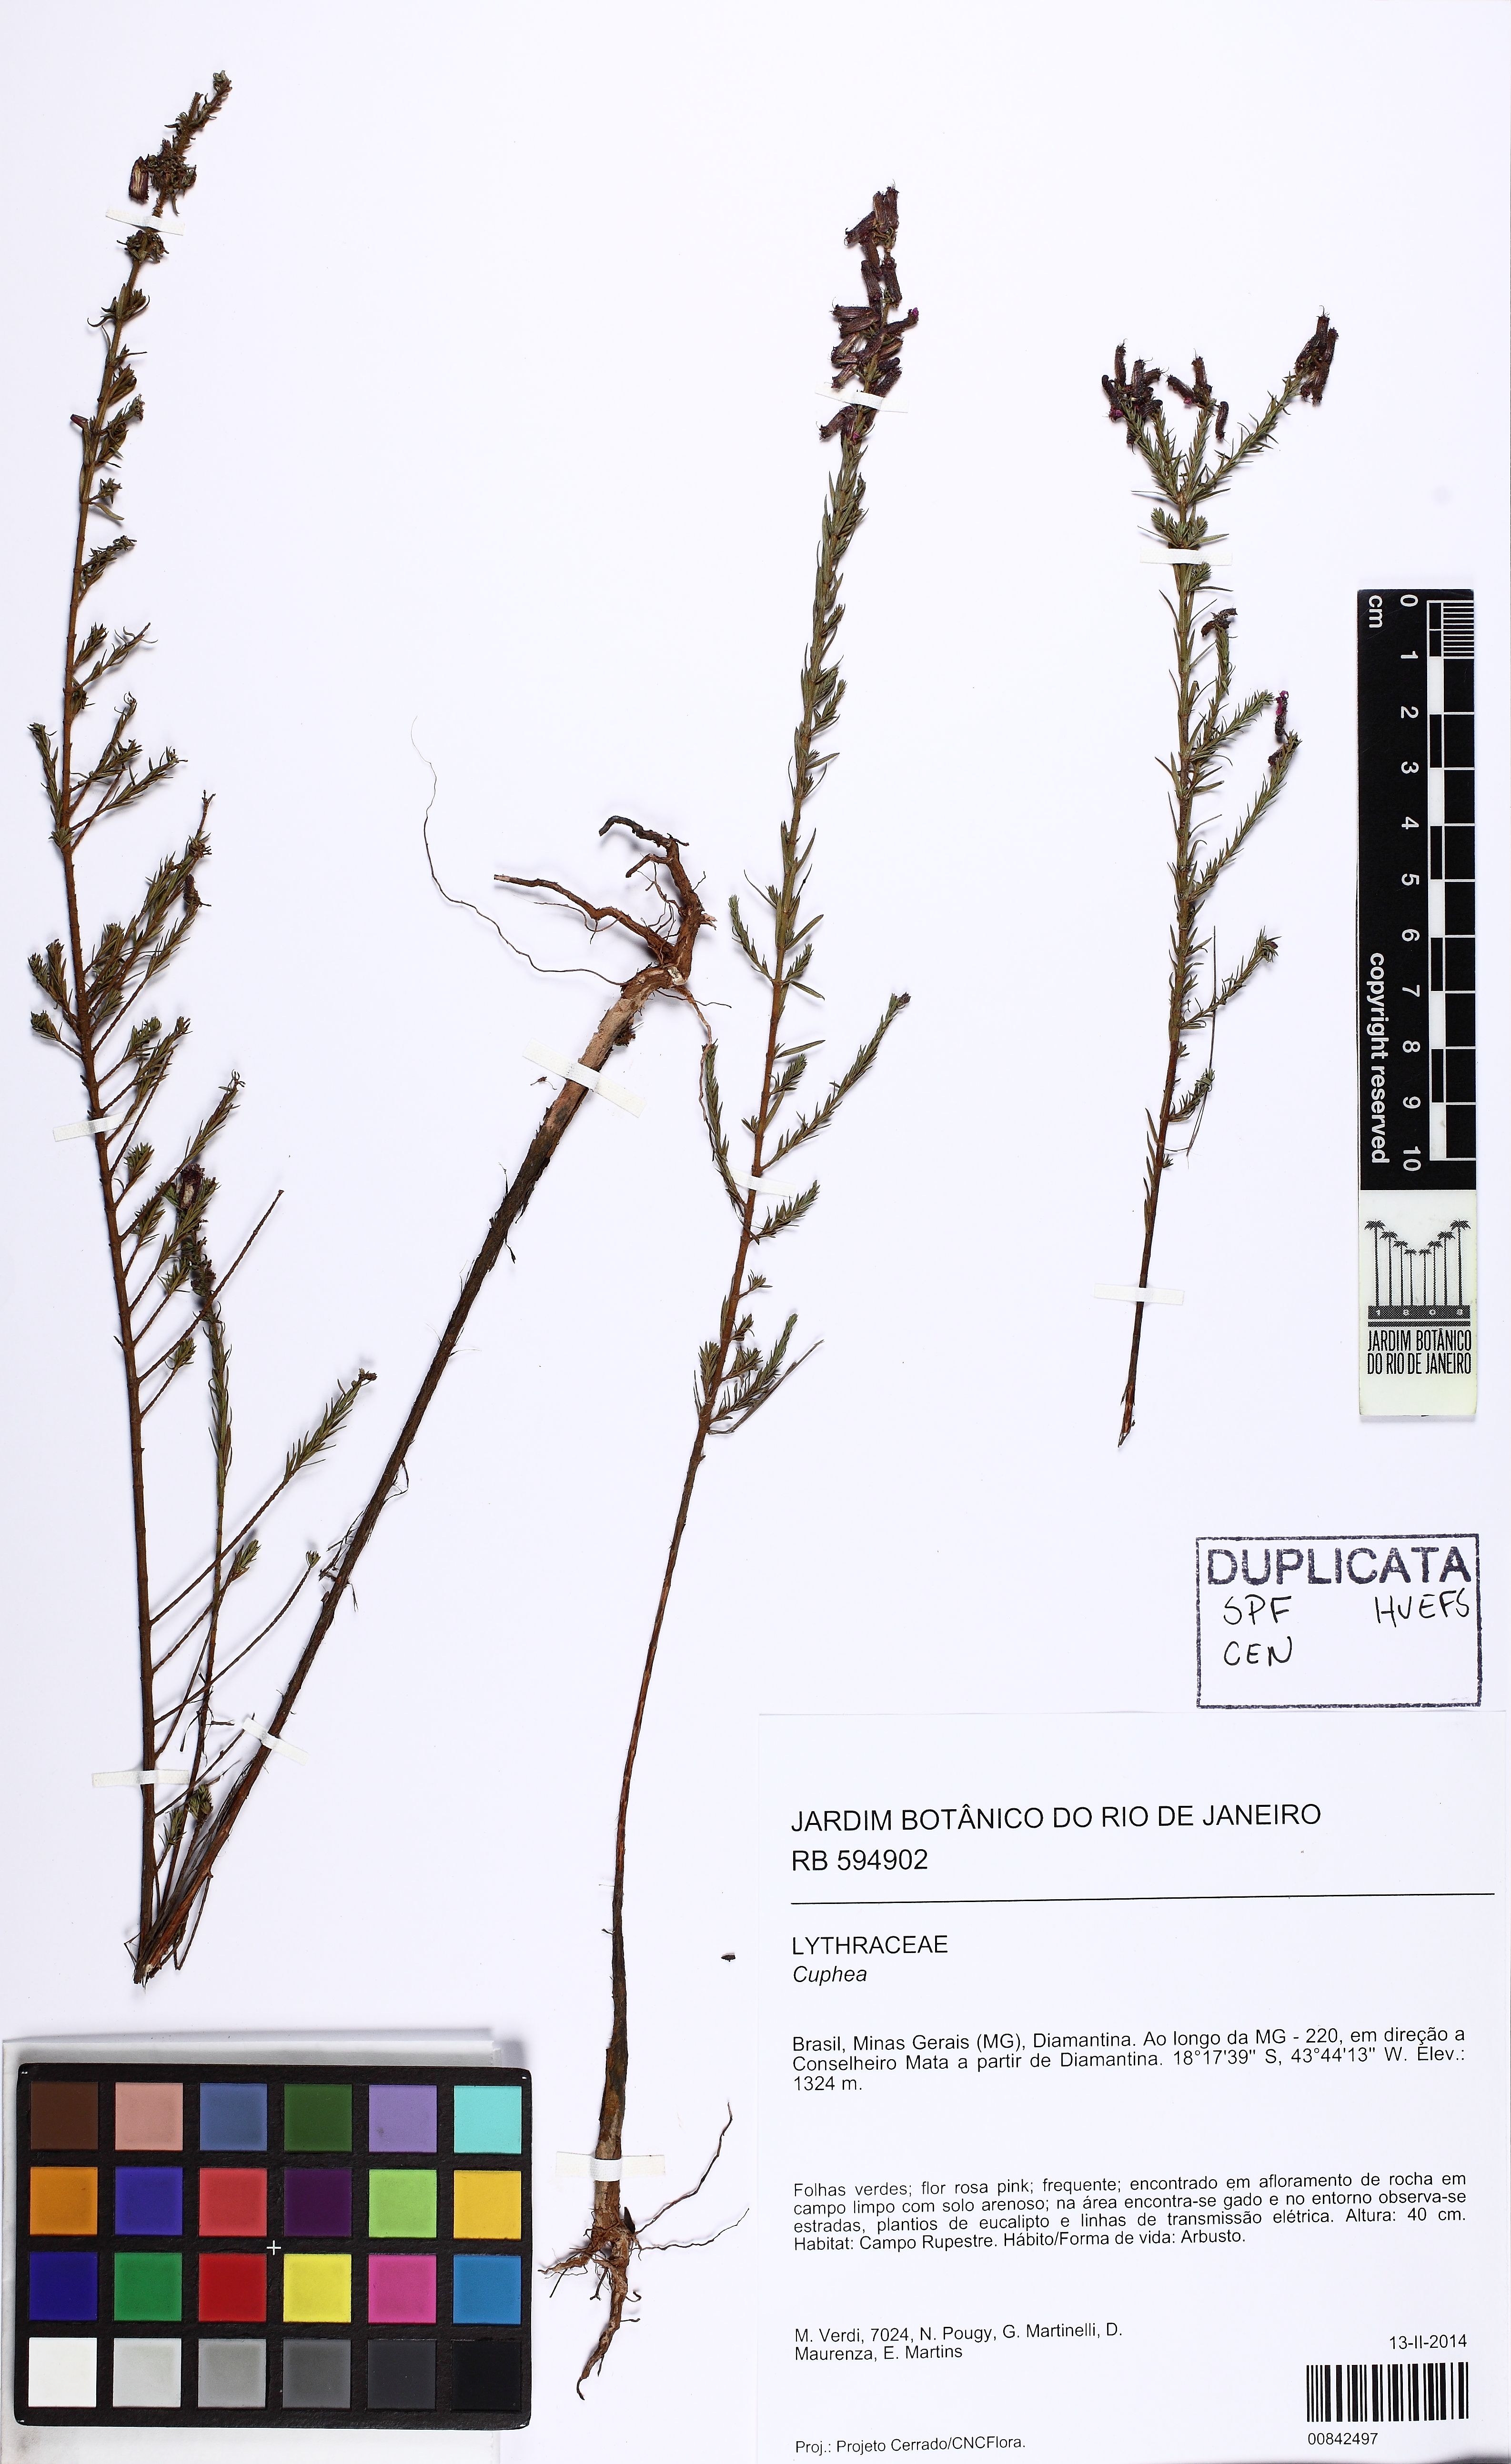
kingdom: Plantae
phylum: Tracheophyta
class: Magnoliopsida
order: Myrtales
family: Lythraceae
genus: Cuphea
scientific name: Cuphea ericoides
